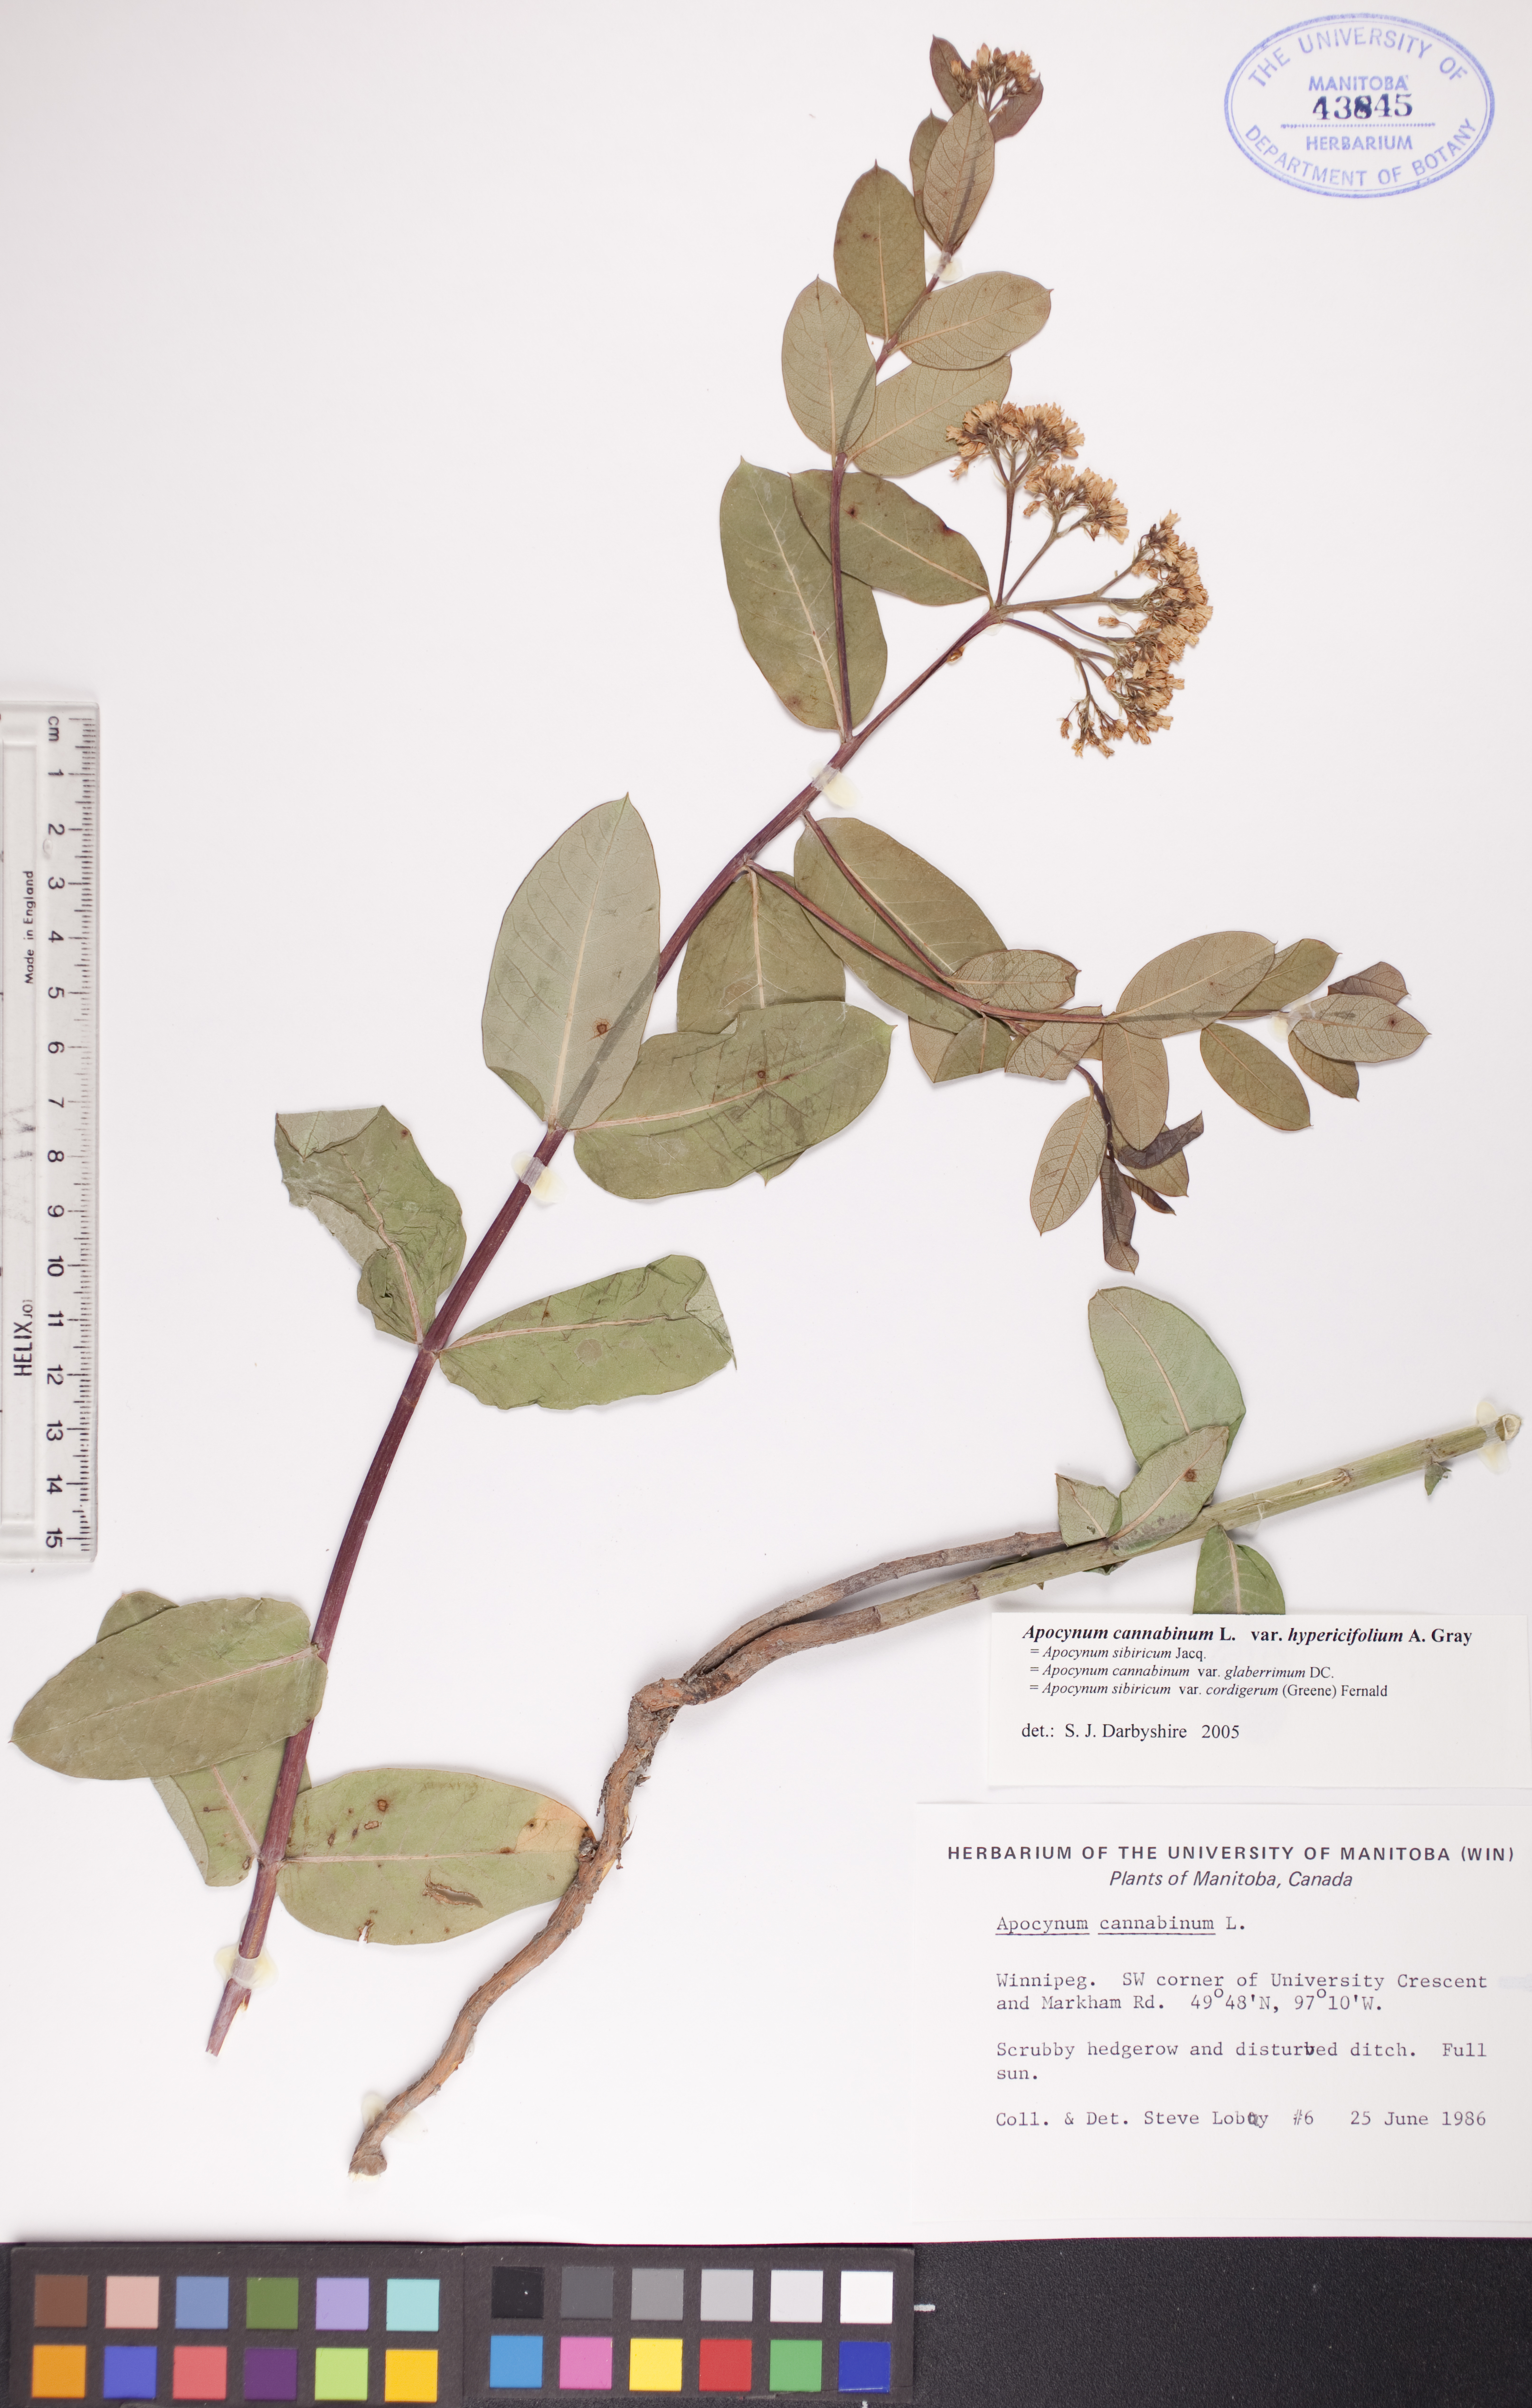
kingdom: Plantae
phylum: Tracheophyta
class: Magnoliopsida
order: Gentianales
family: Apocynaceae
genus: Apocynum
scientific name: Apocynum cannabinum
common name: Hemp dogbane
